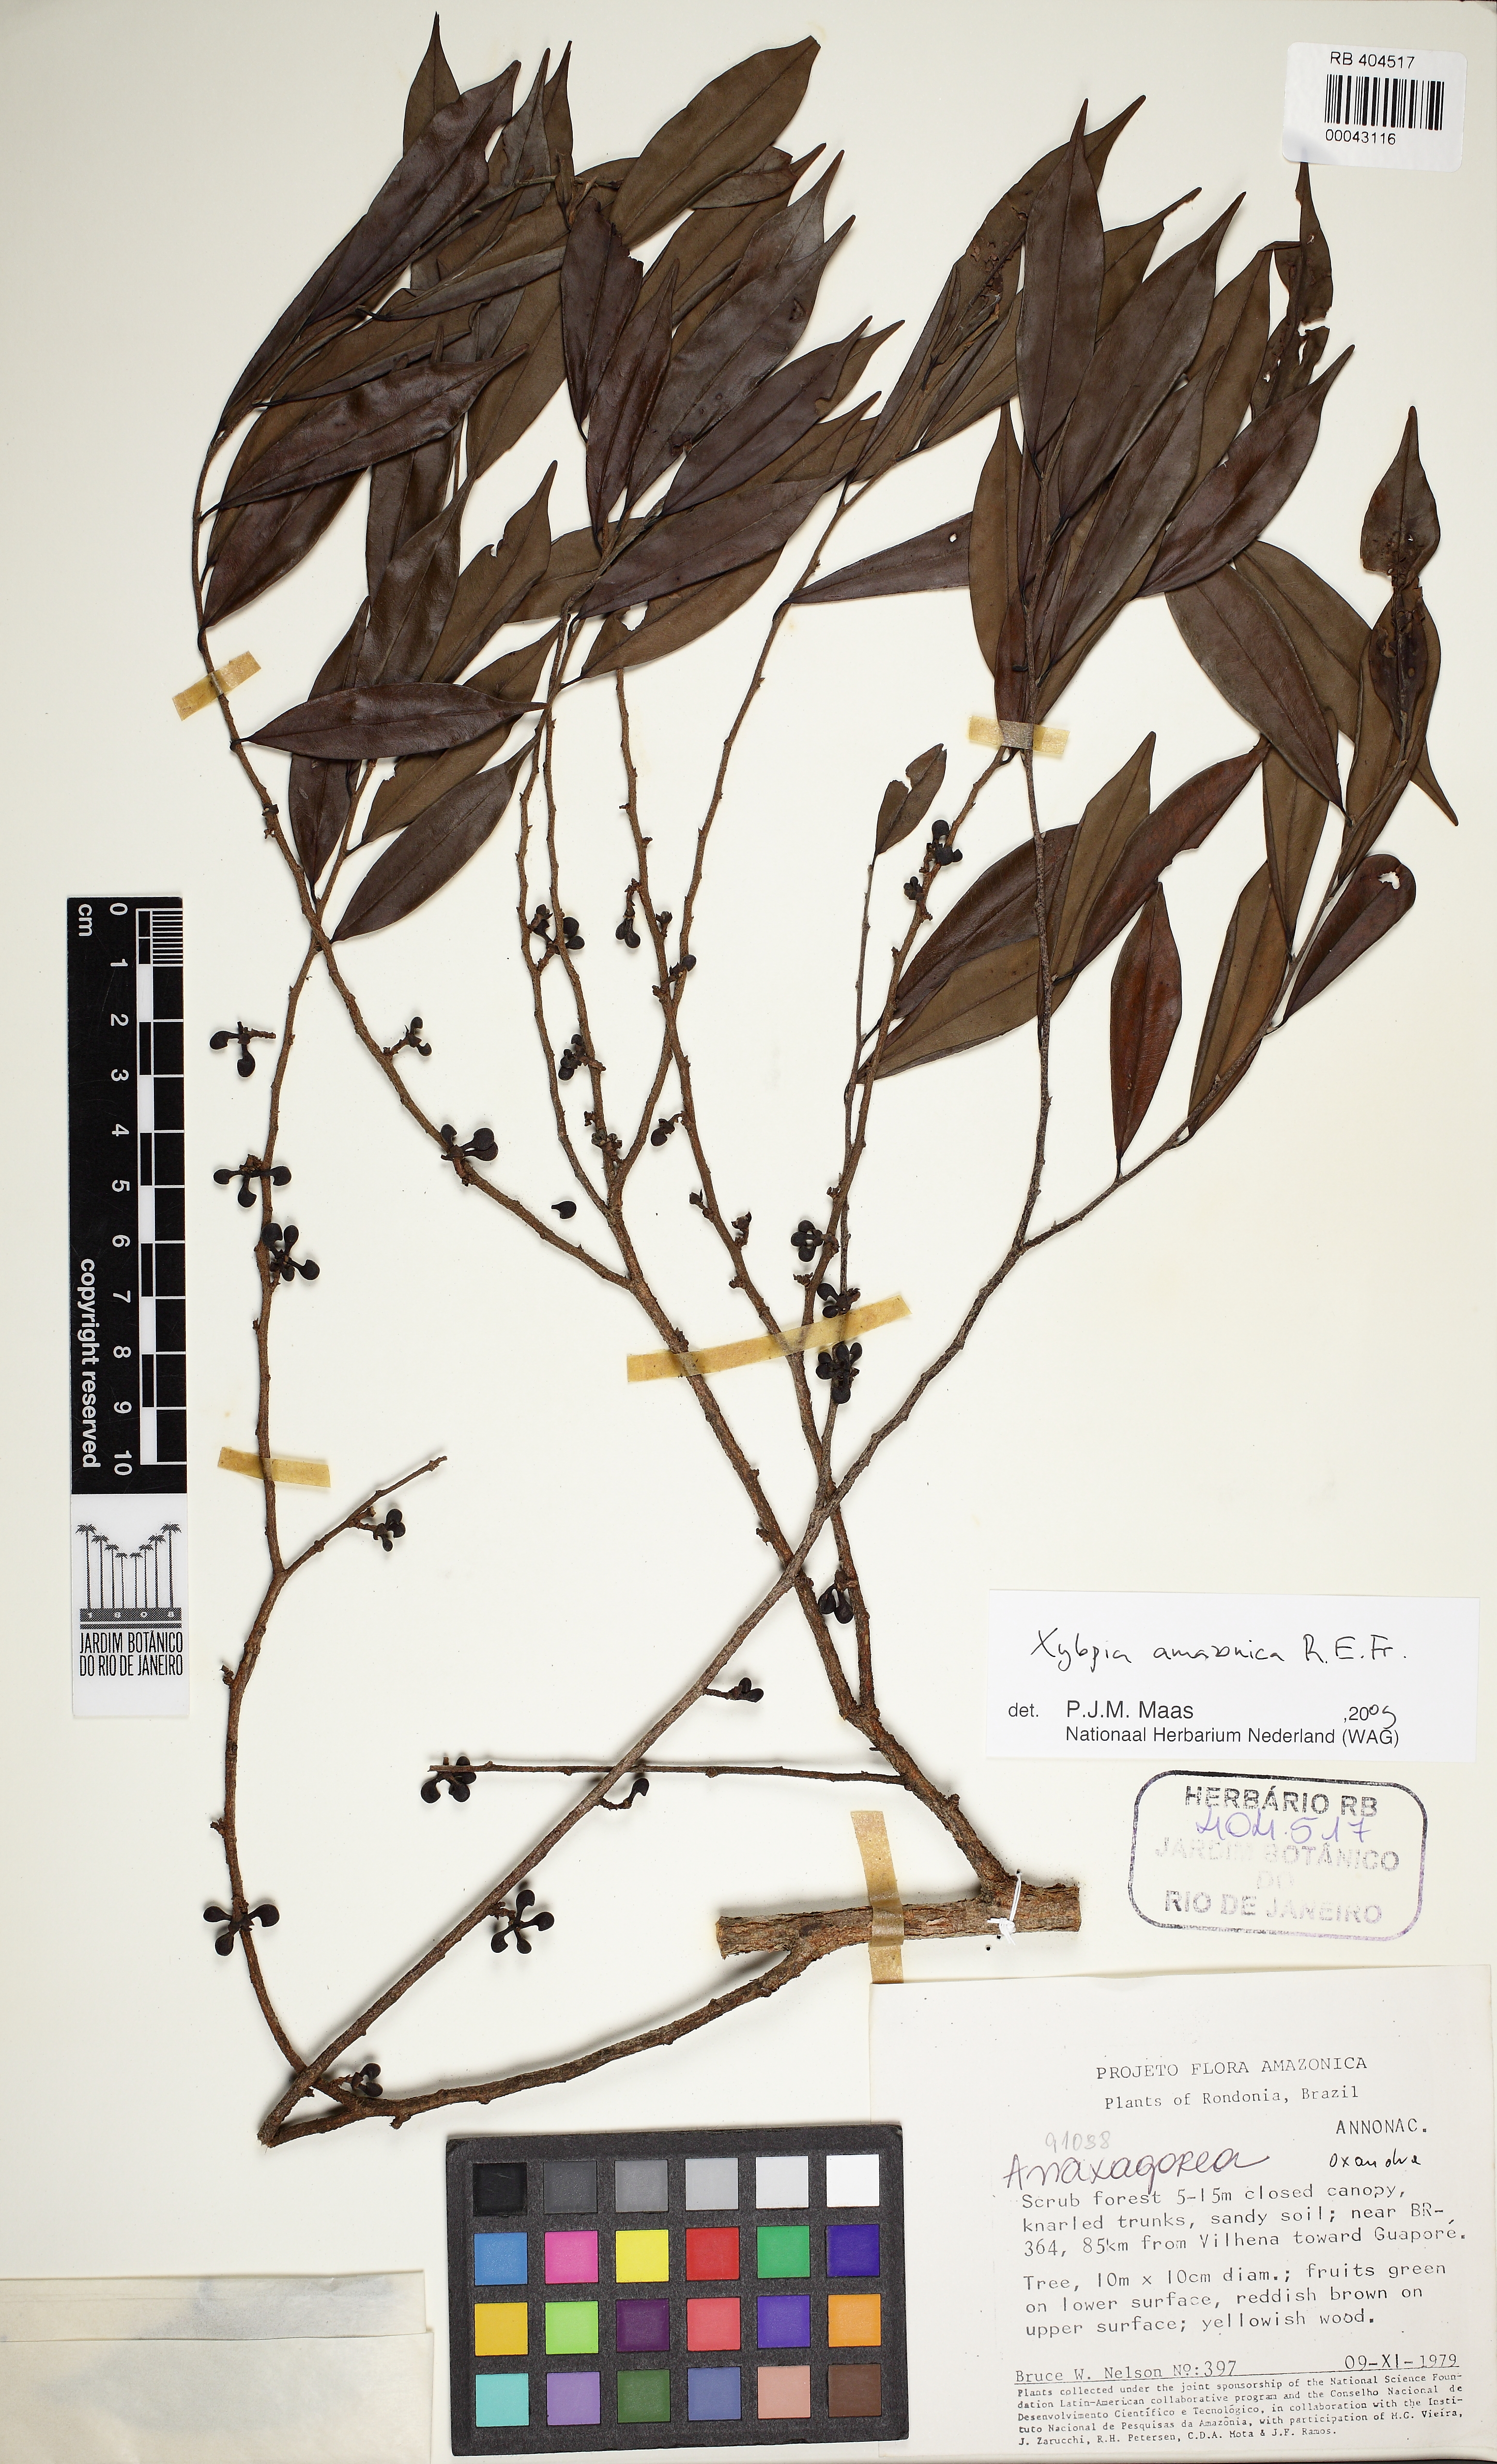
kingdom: Plantae
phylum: Tracheophyta
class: Magnoliopsida
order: Magnoliales
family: Annonaceae
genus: Xylopia
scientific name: Xylopia amazonica
